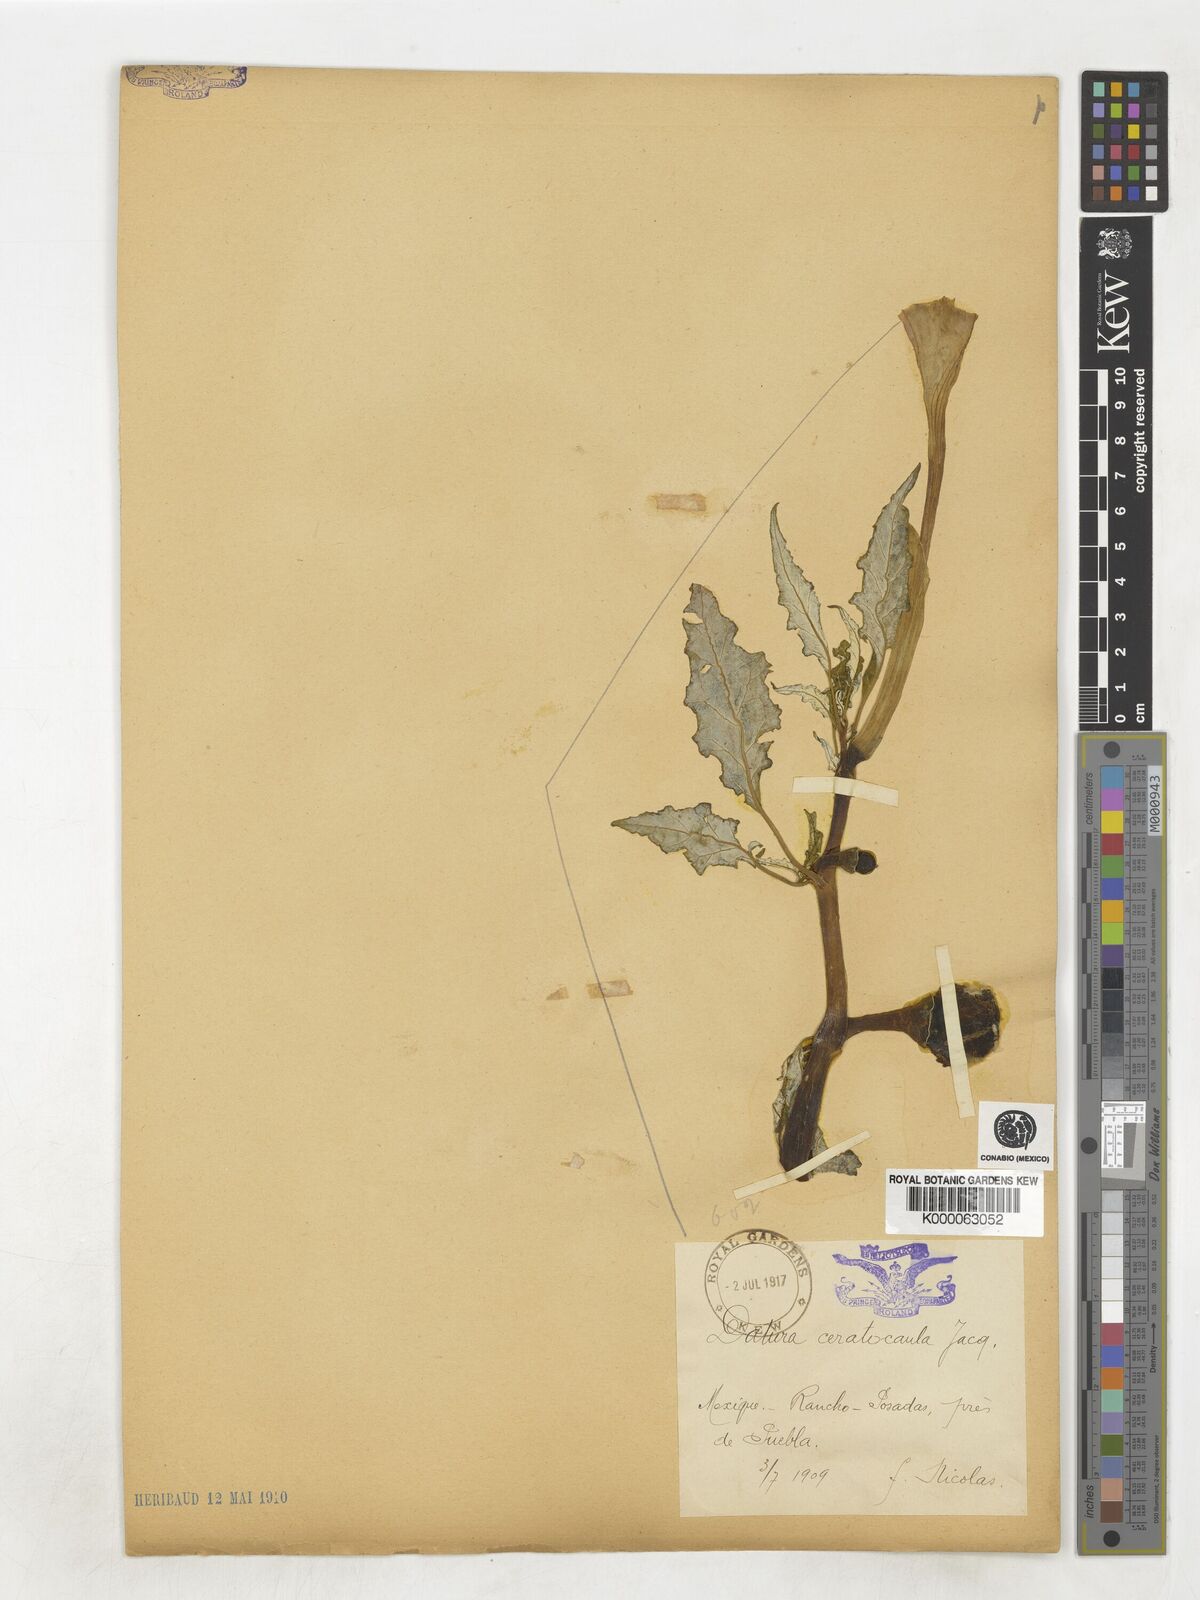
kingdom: Plantae
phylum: Tracheophyta
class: Magnoliopsida
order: Solanales
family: Solanaceae
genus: Datura
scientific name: Datura ceratocaula
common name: Latin thorn-apple
